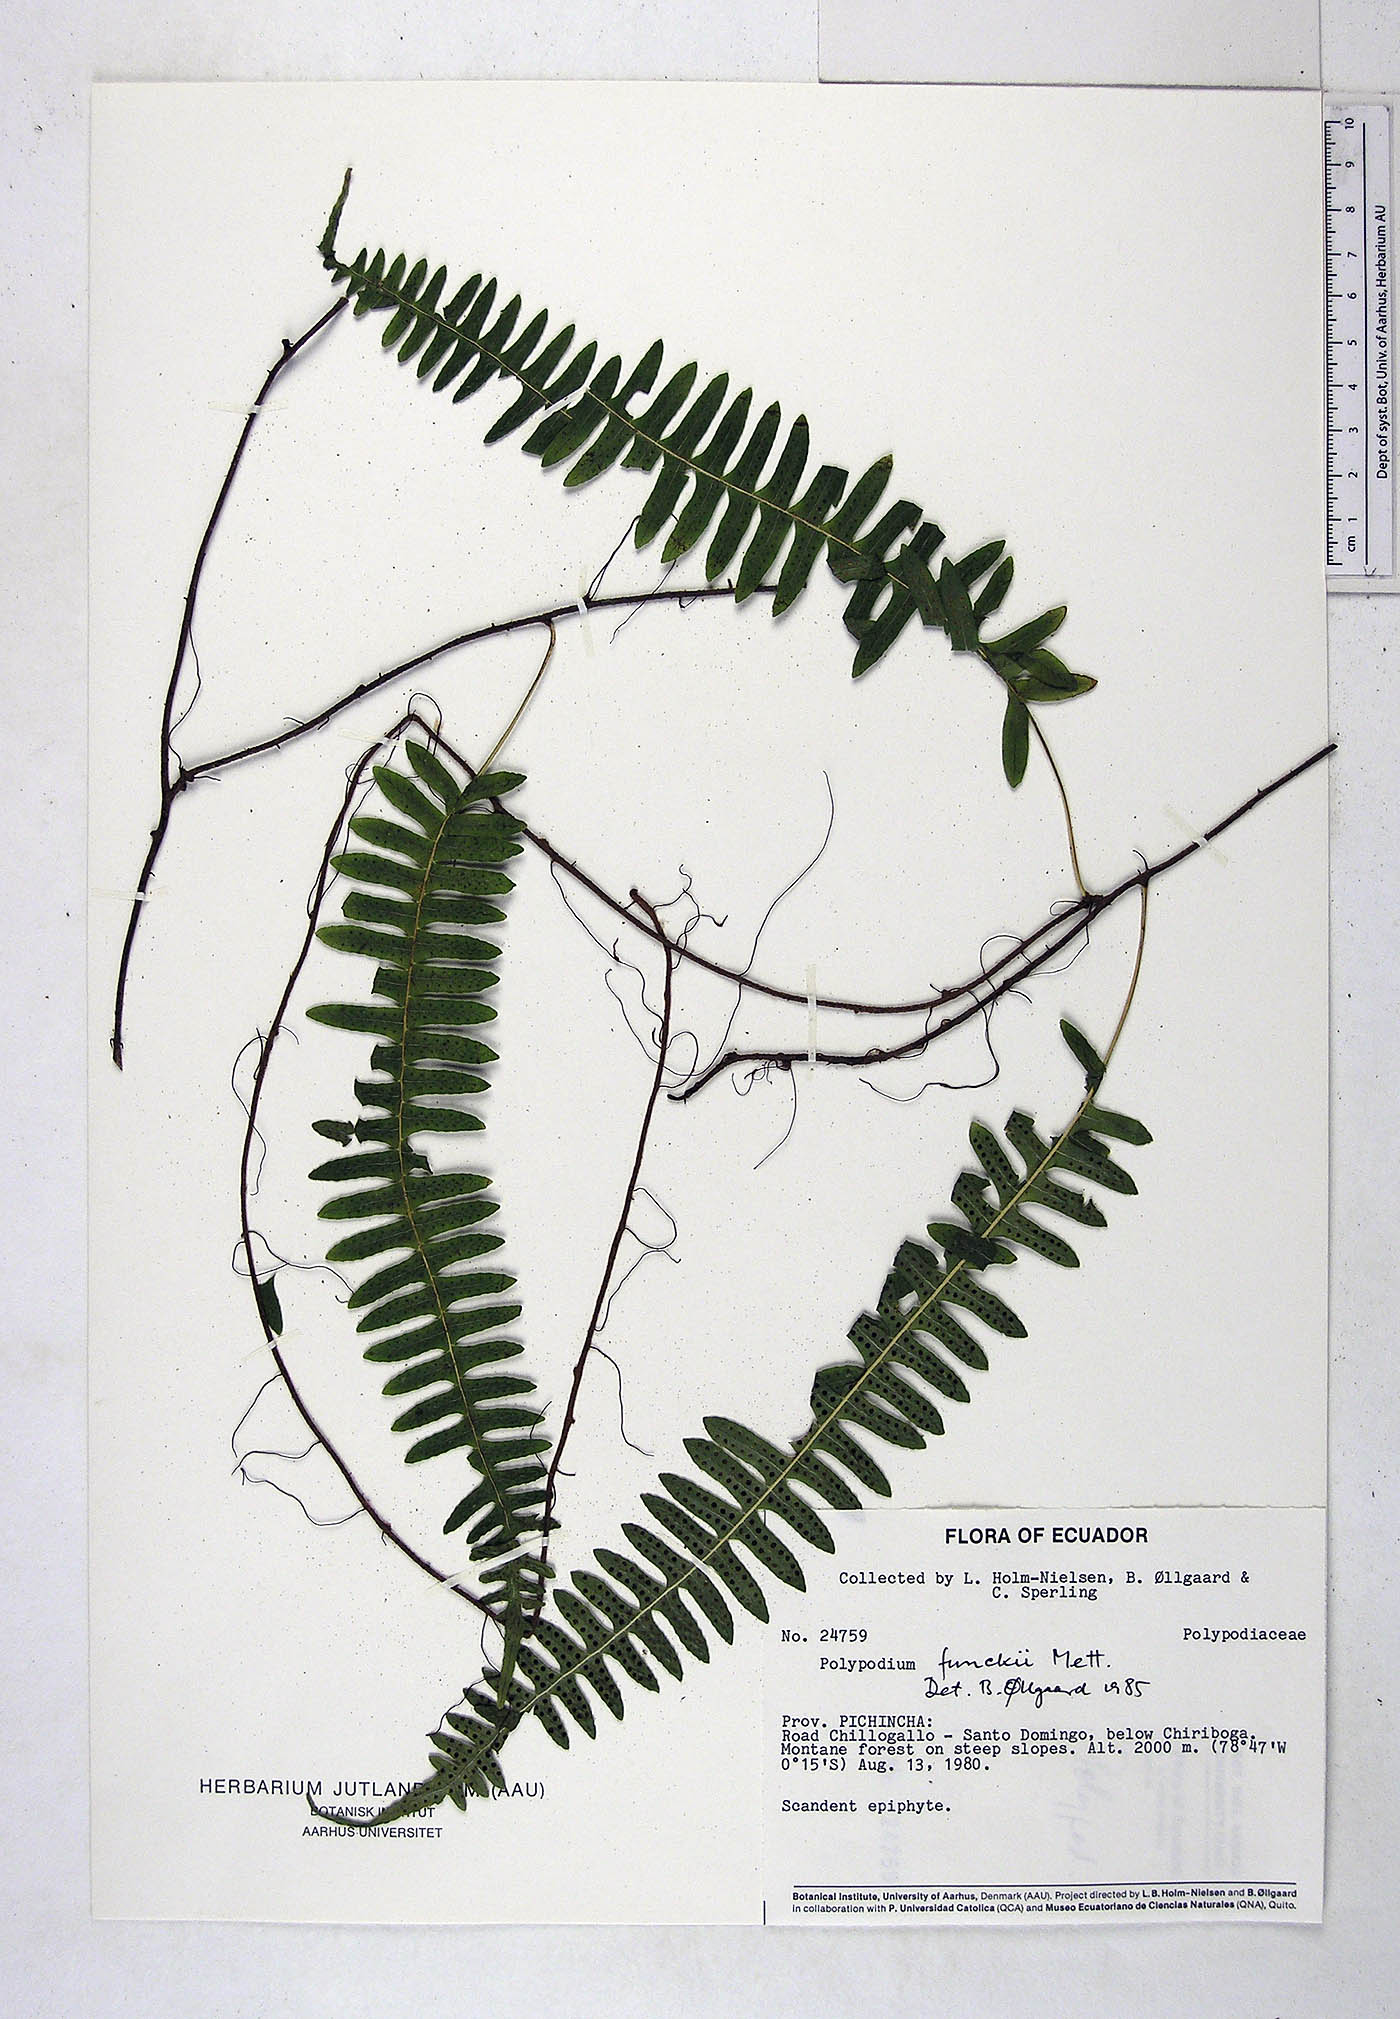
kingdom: Plantae
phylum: Tracheophyta
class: Polypodiopsida
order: Polypodiales
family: Polypodiaceae
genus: Serpocaulon
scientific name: Serpocaulon funckii
